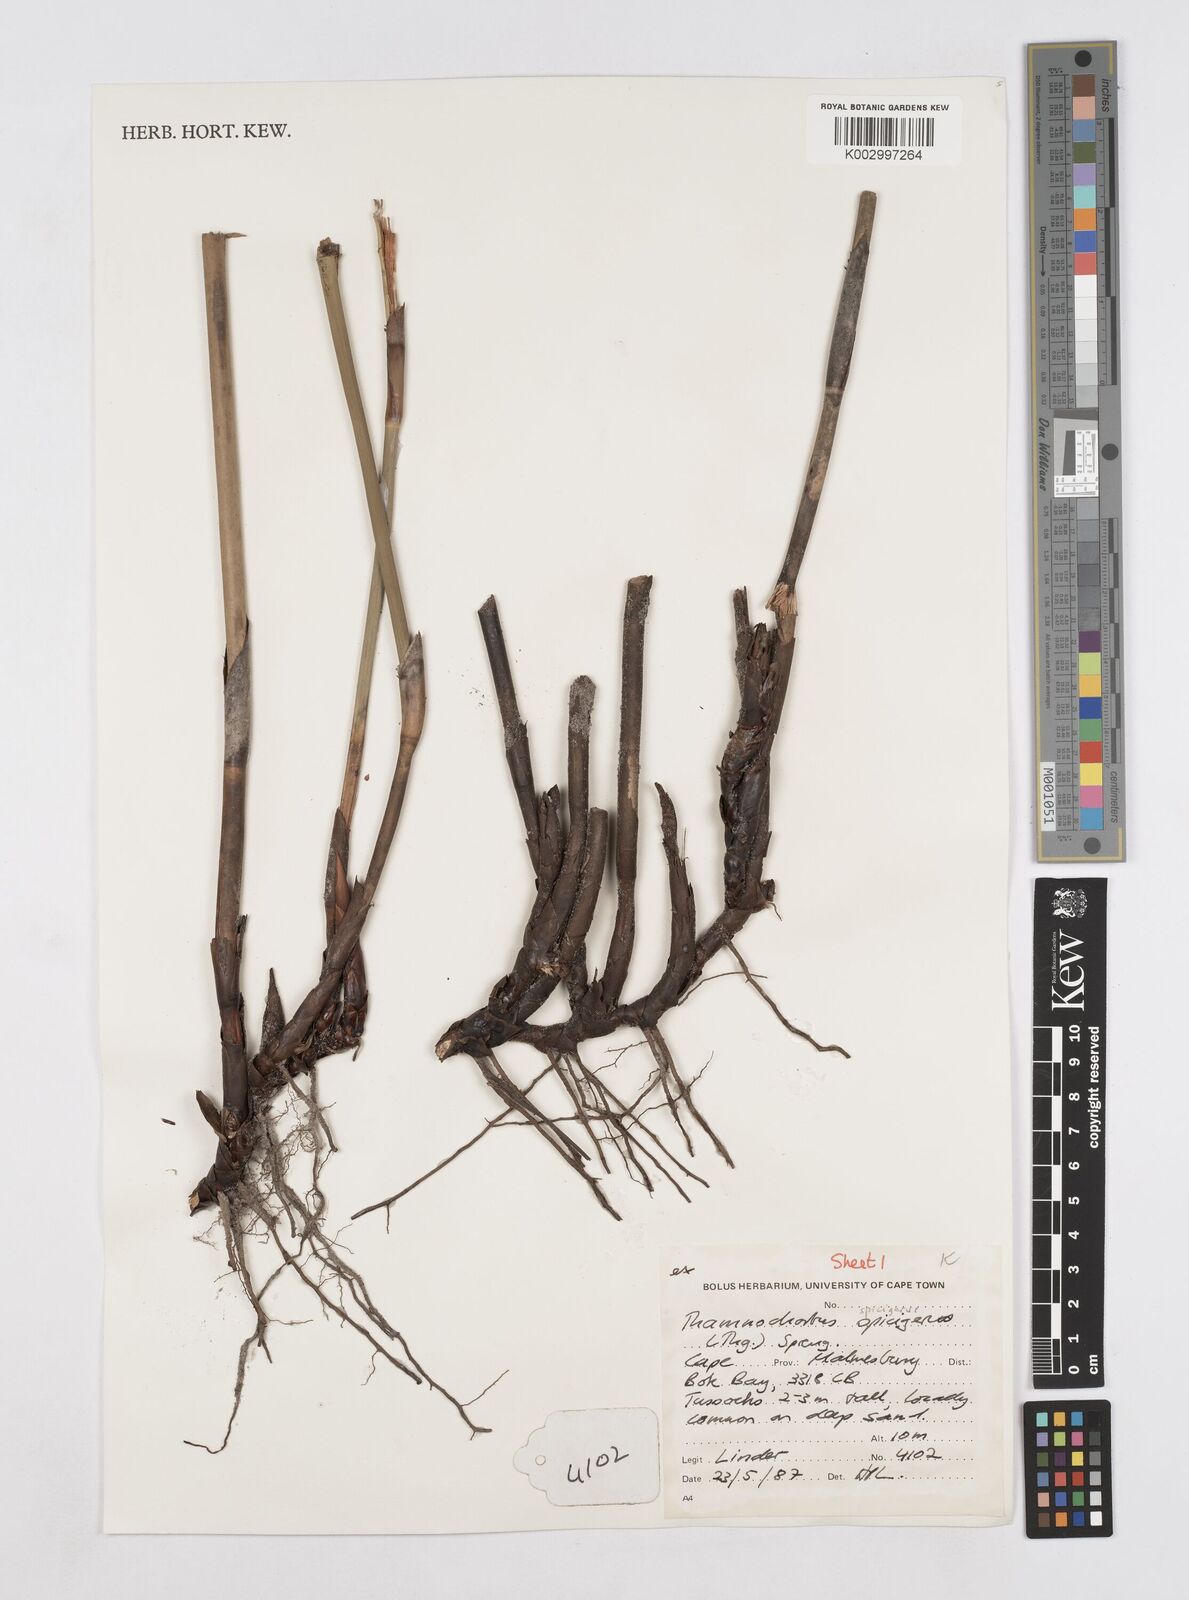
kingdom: Plantae
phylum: Tracheophyta
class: Liliopsida
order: Poales
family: Restionaceae
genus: Thamnochortus
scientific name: Thamnochortus spicigerus
